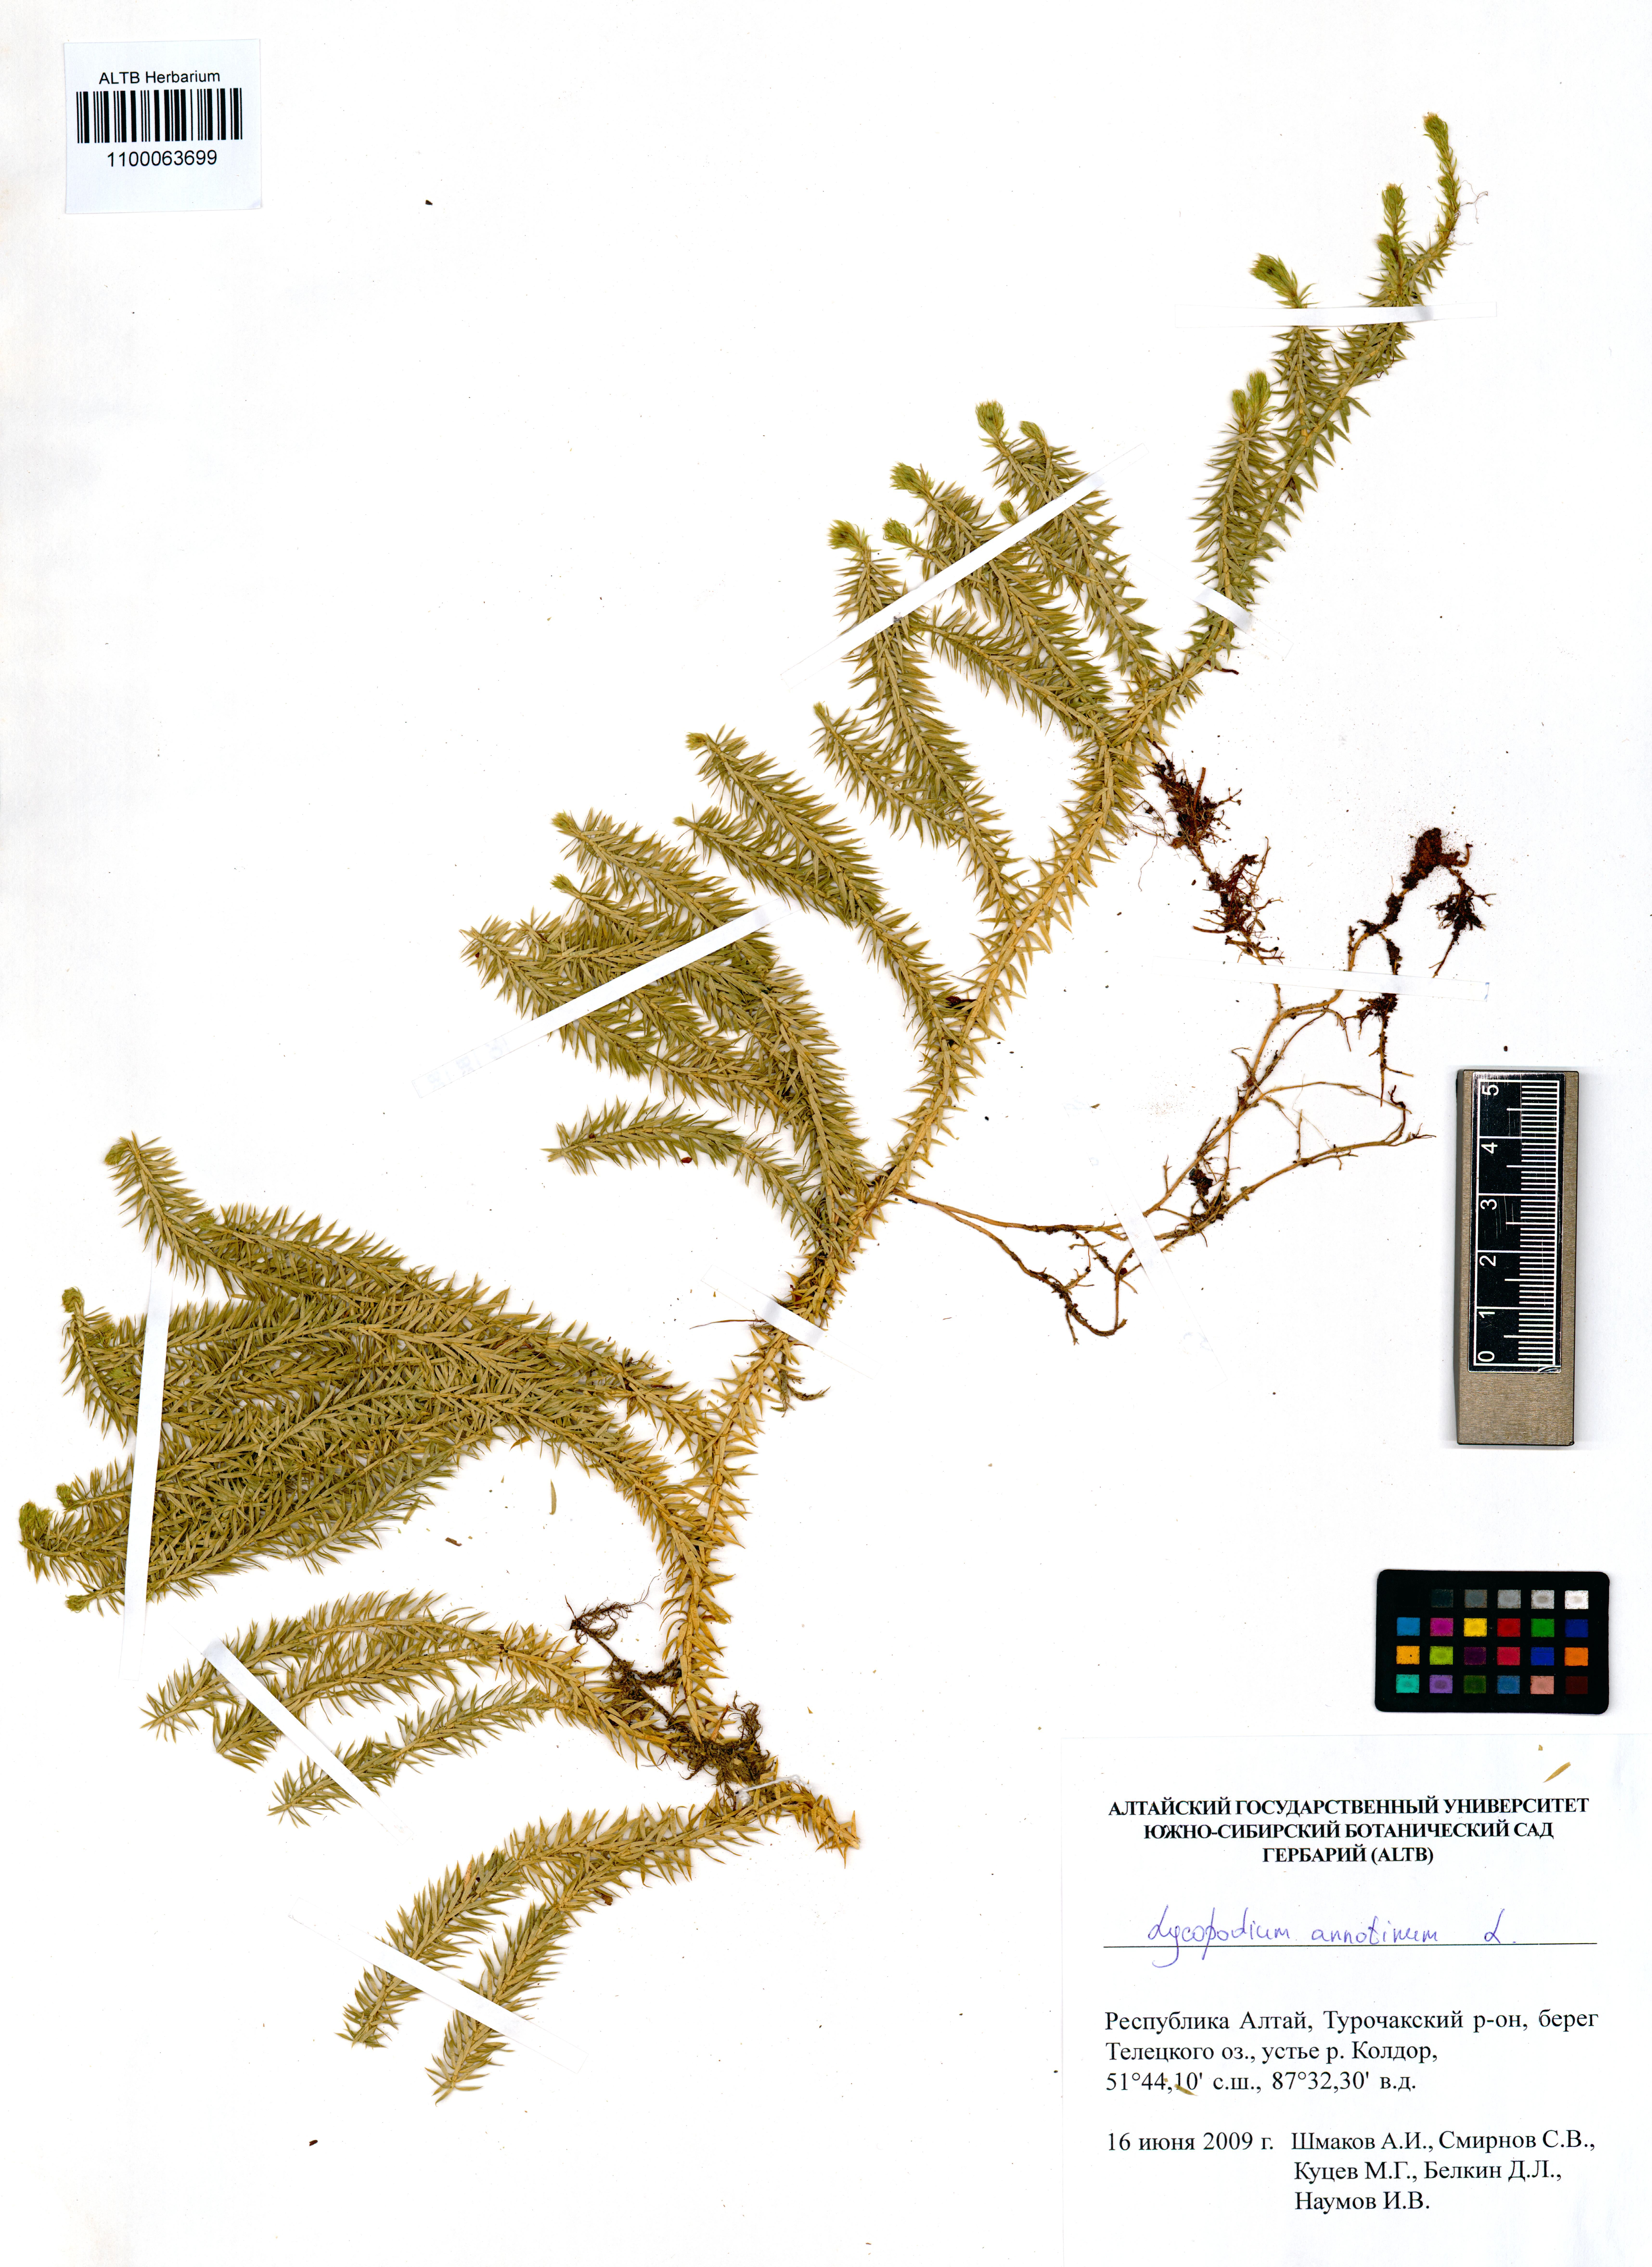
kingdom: Plantae
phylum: Tracheophyta
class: Lycopodiopsida
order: Lycopodiales
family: Lycopodiaceae
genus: Spinulum
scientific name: Spinulum annotinum
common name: Interrupted club-moss
